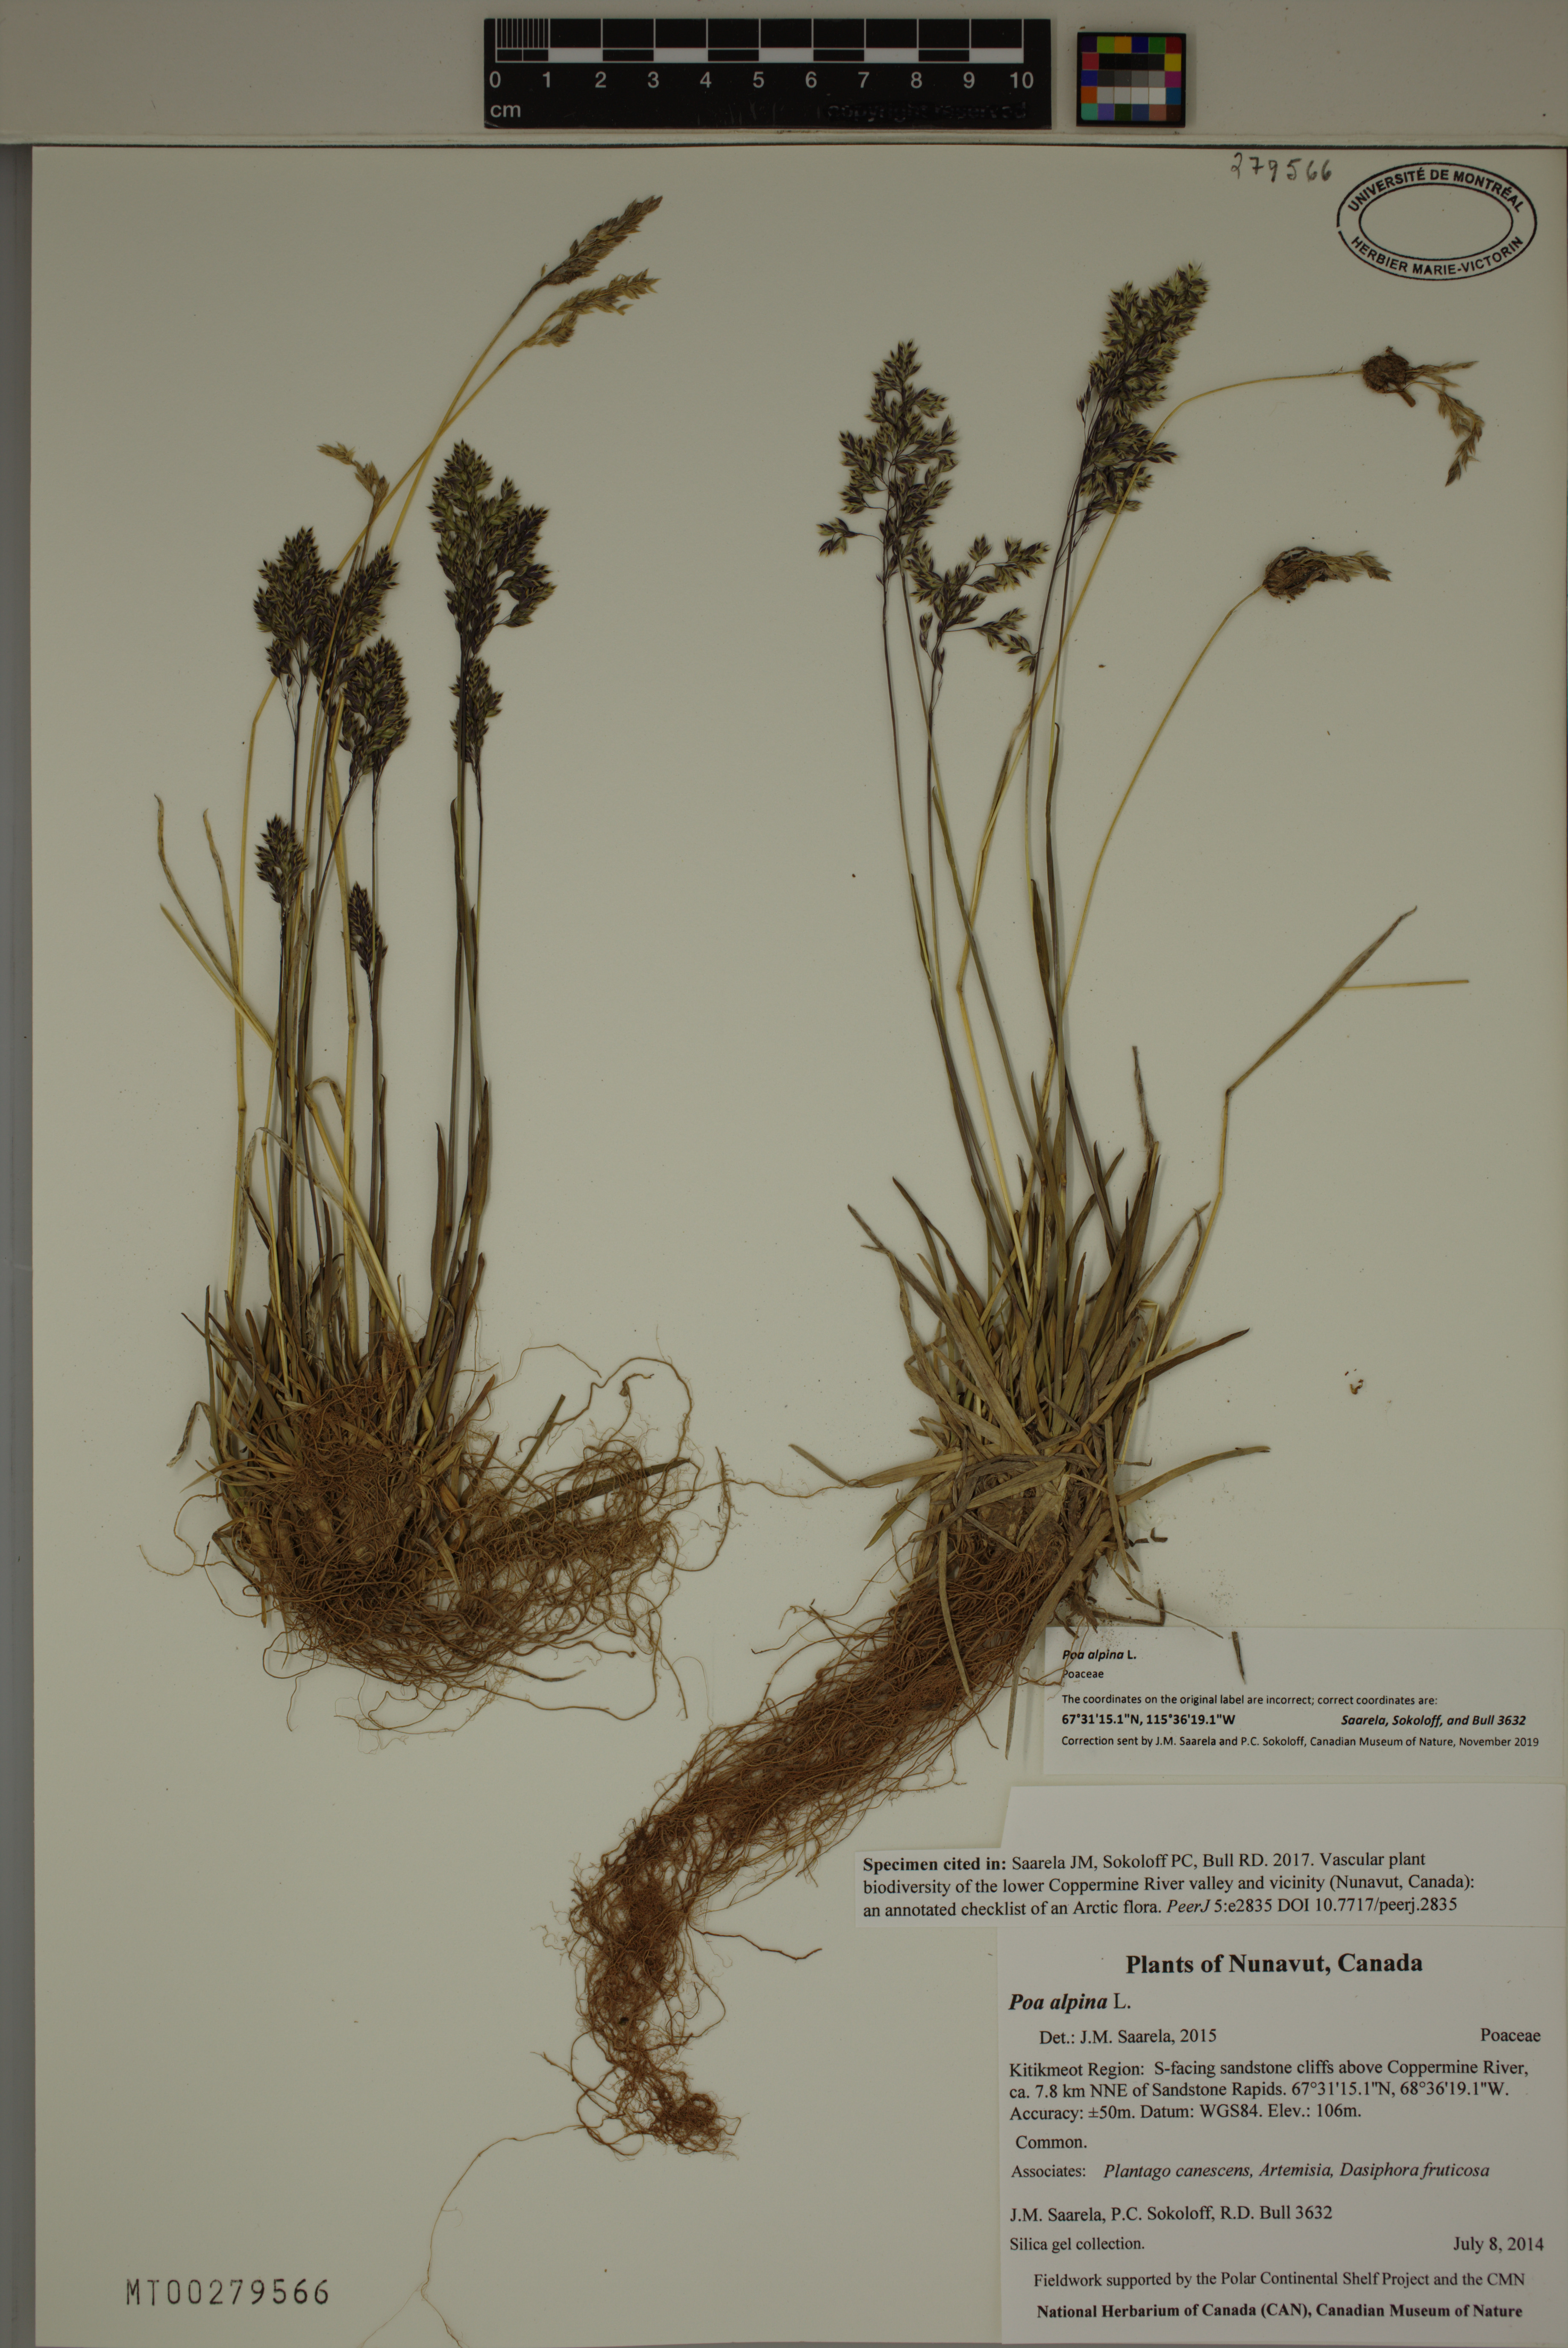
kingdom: Plantae
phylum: Tracheophyta
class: Liliopsida
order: Poales
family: Poaceae
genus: Poa
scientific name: Poa alpina
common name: Alpine bluegrass
